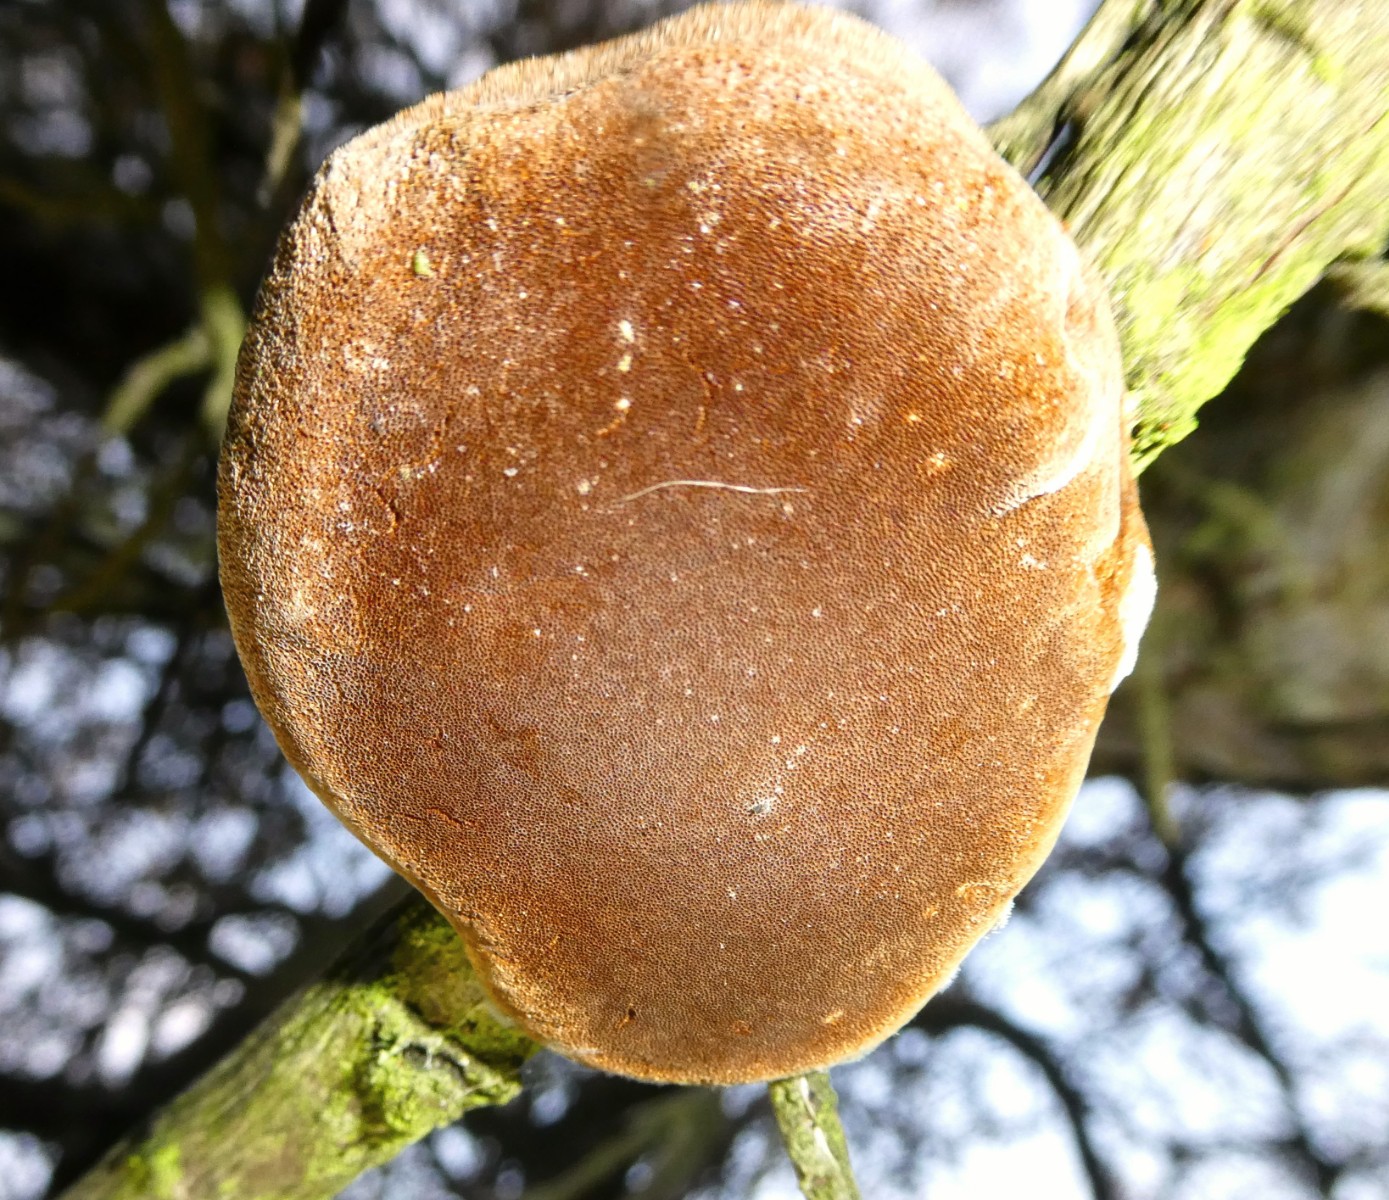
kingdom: Fungi
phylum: Basidiomycota
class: Agaricomycetes
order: Hymenochaetales
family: Hymenochaetaceae
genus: Fomitiporia
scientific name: Fomitiporia hippophaeicola
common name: havtorn-ildporesvamp
